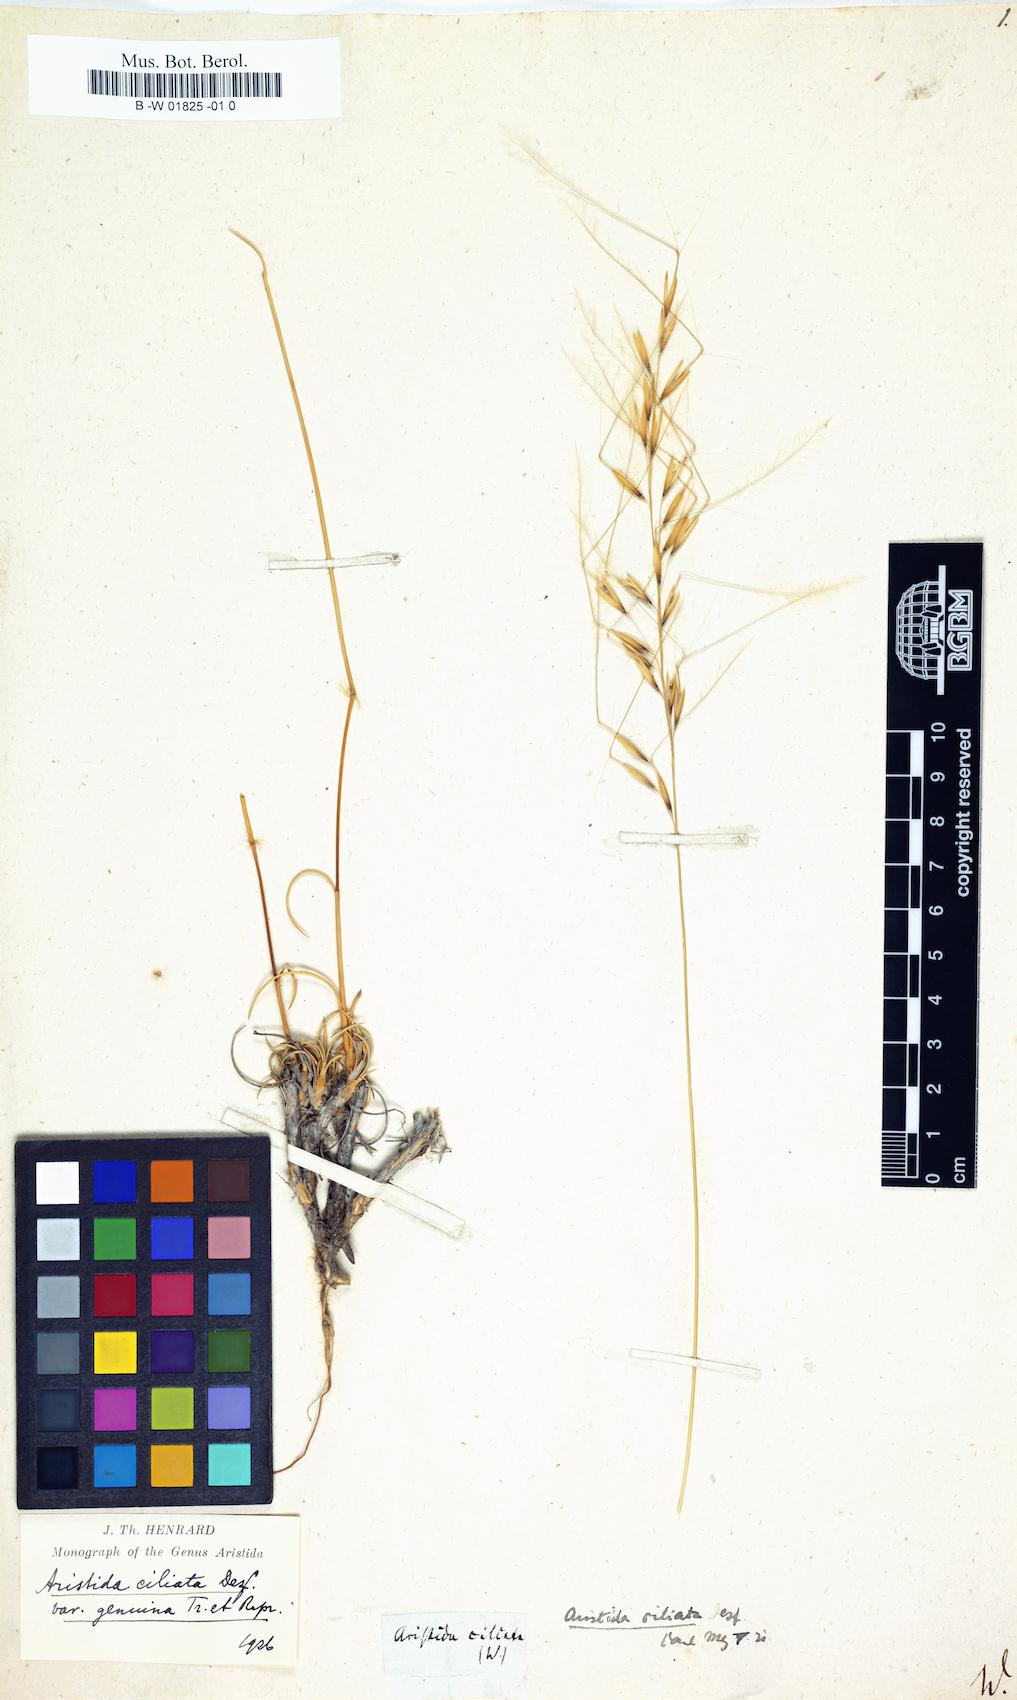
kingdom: Plantae
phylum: Tracheophyta
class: Liliopsida
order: Poales
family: Poaceae
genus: Stipagrostis
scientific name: Stipagrostis
